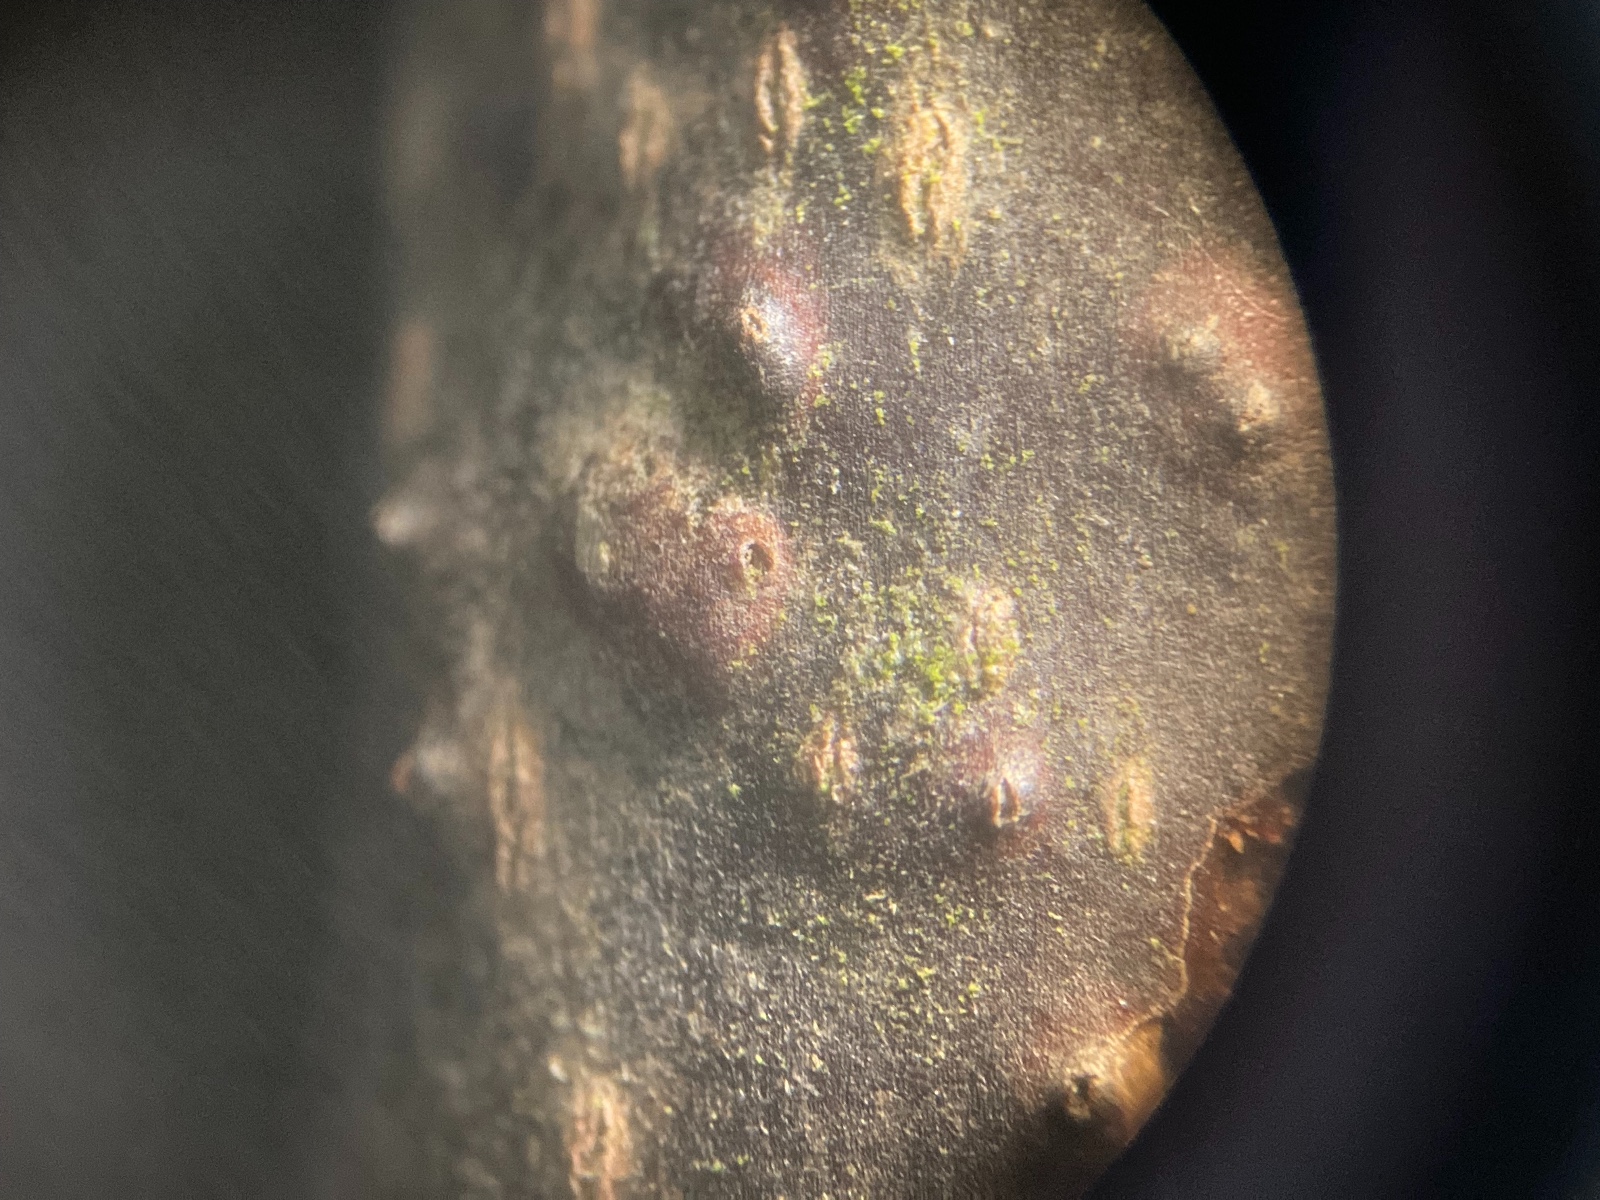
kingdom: Fungi
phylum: Ascomycota
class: Sordariomycetes
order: Diaporthales
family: Diaporthaceae
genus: Diaporthe
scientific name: Diaporthe niessliana
